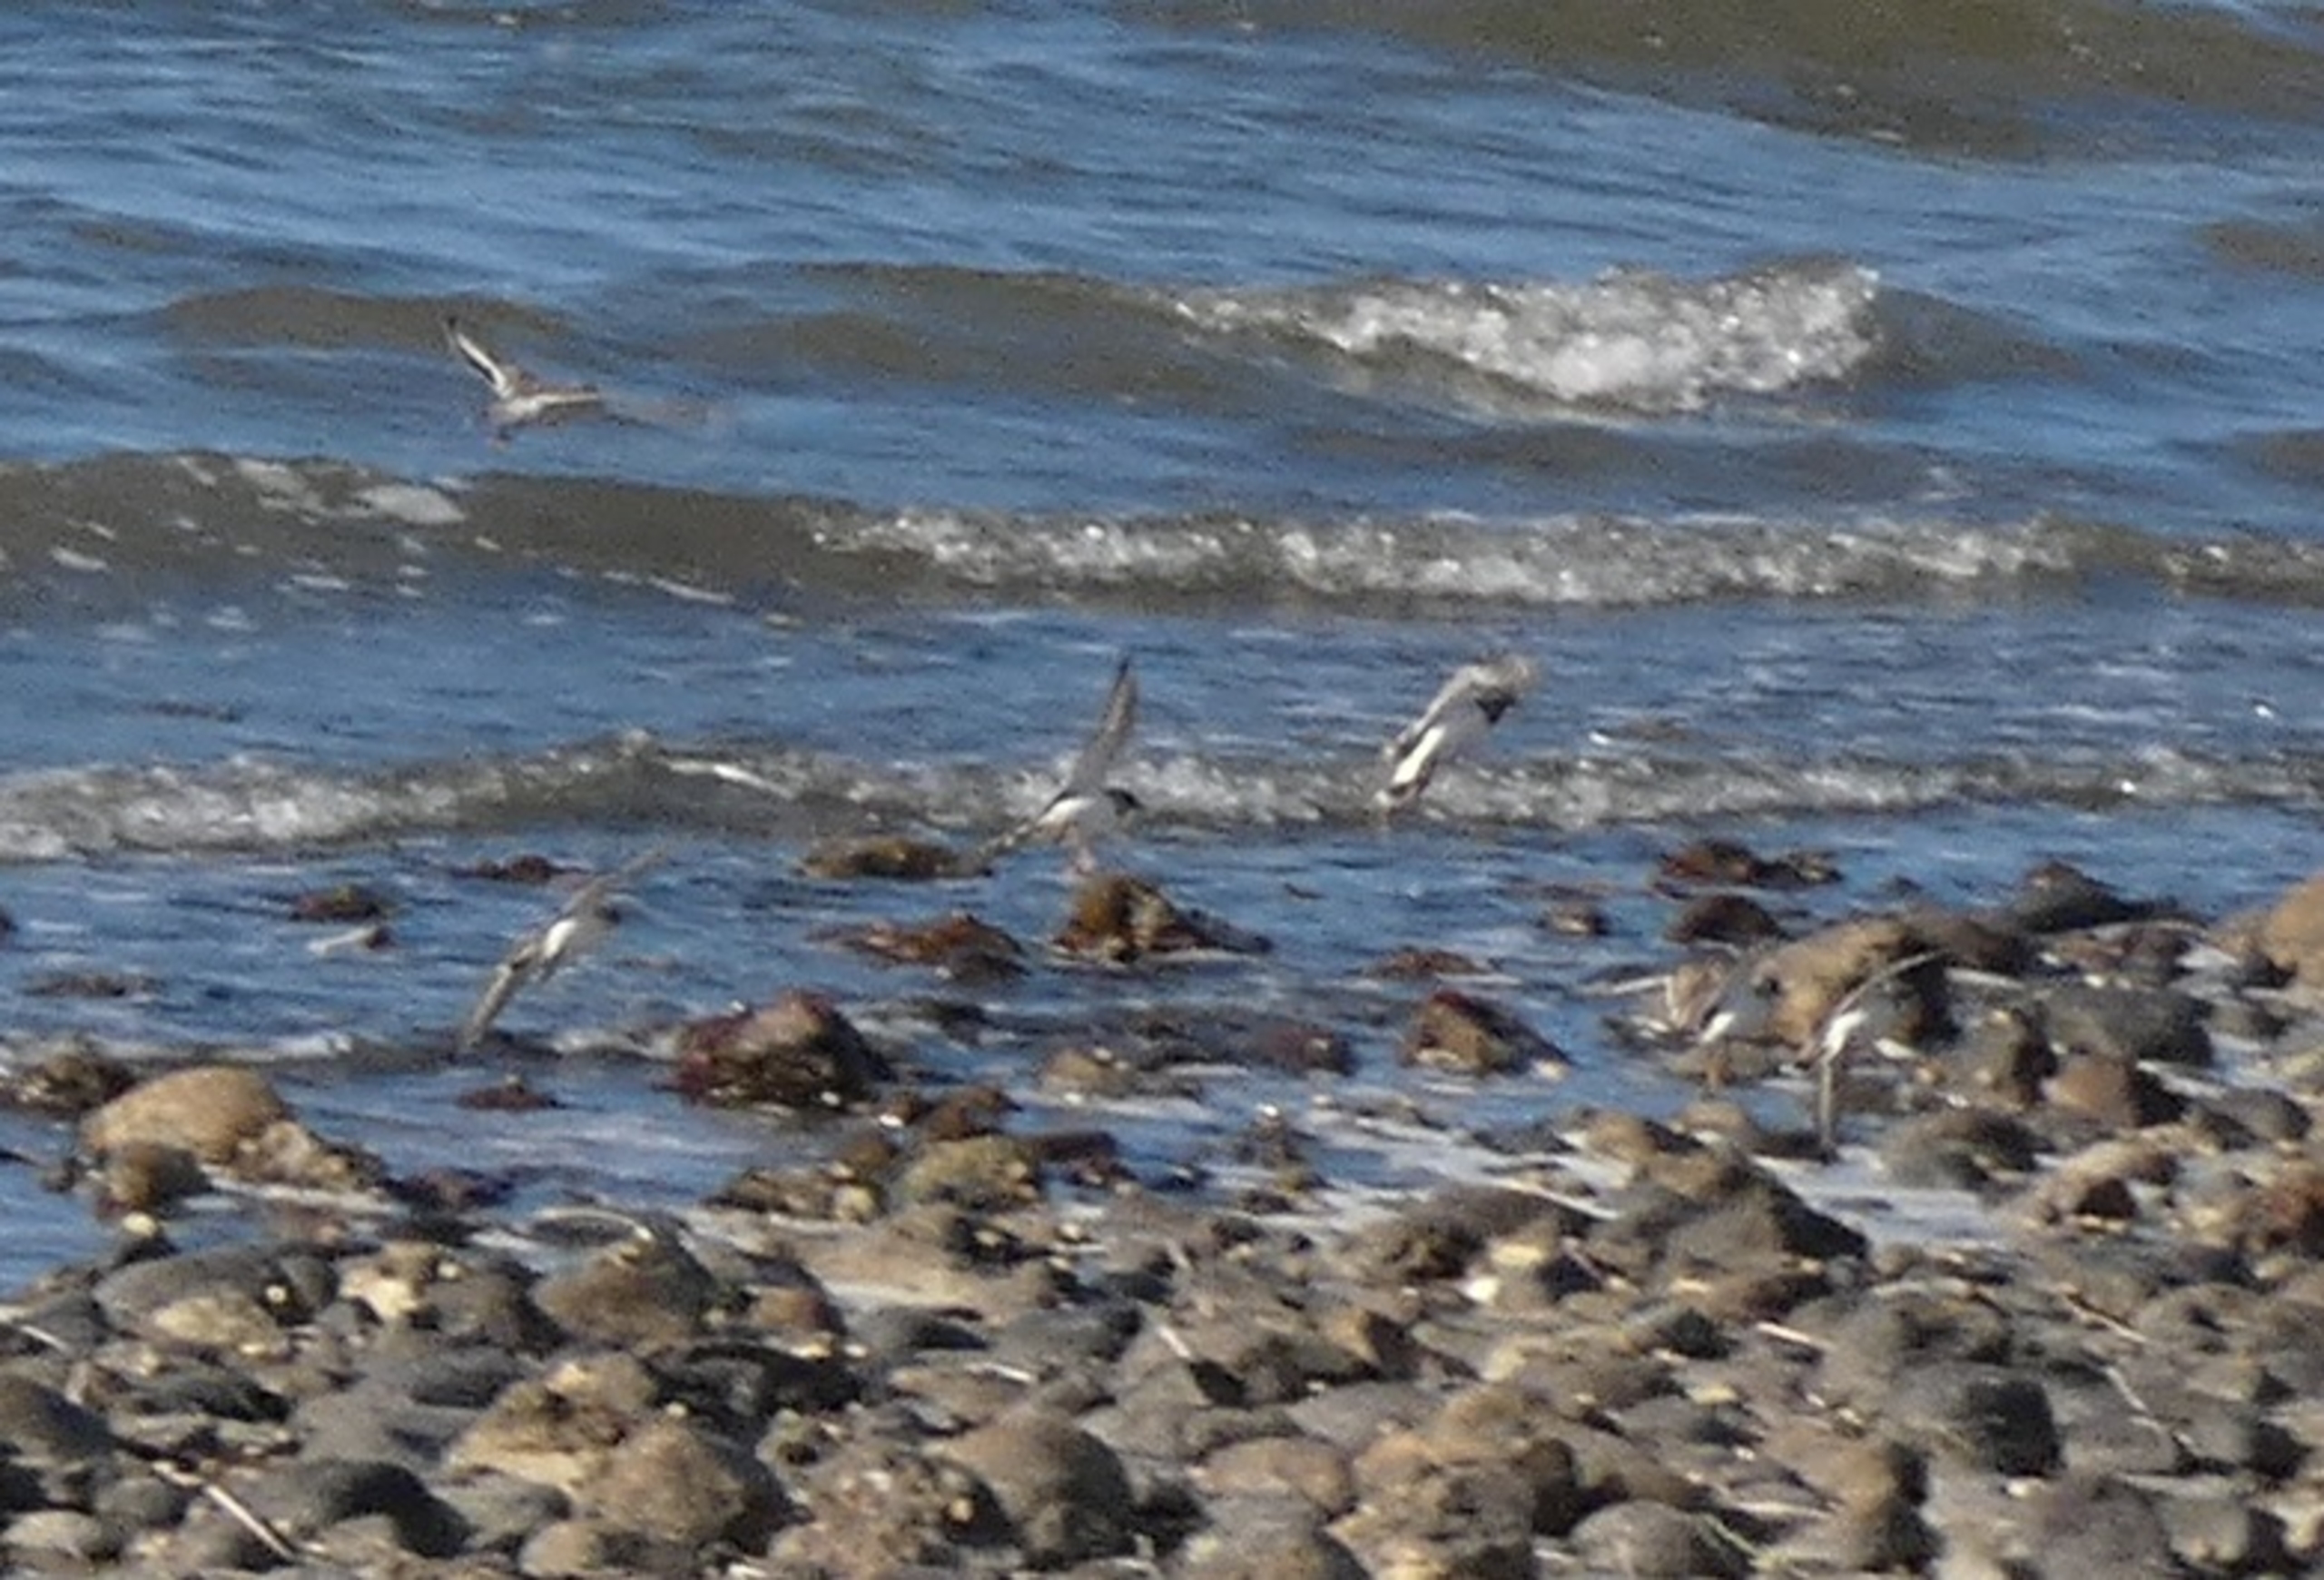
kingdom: Animalia
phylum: Chordata
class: Aves
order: Charadriiformes
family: Charadriidae
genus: Charadrius
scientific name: Charadrius hiaticula
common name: Stor præstekrave
